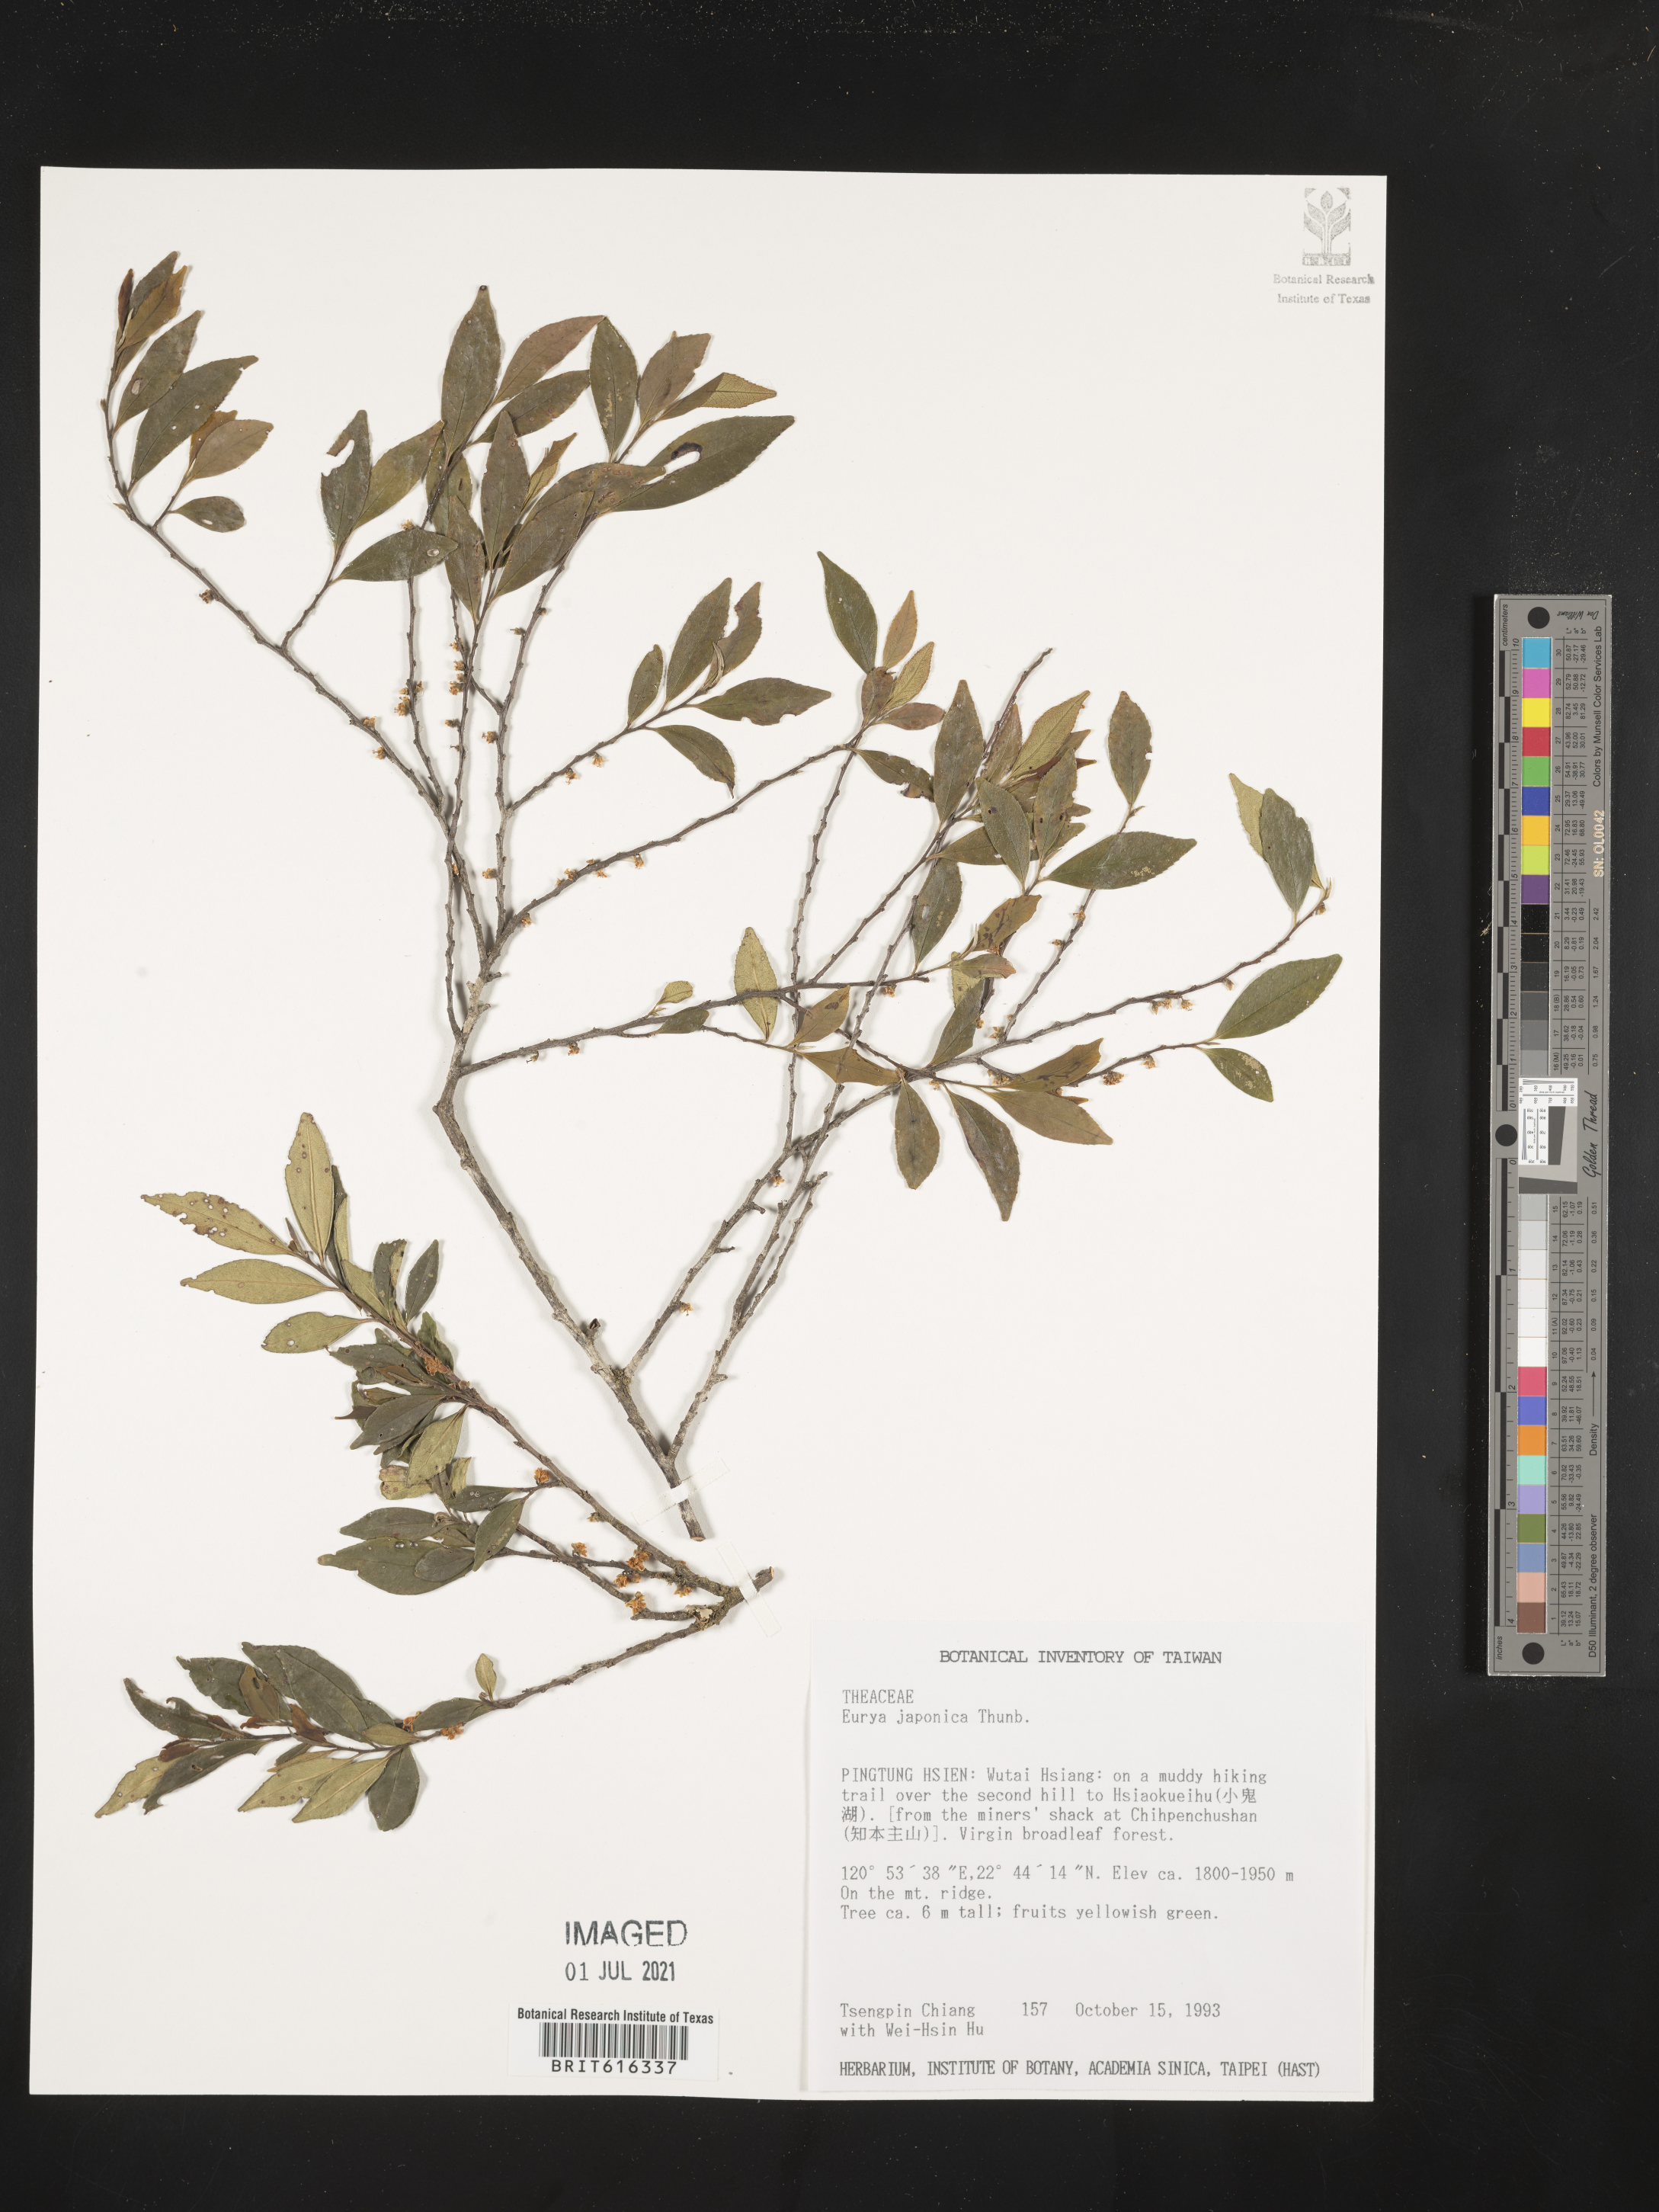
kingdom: Plantae
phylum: Tracheophyta
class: Magnoliopsida
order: Ericales
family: Pentaphylacaceae
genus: Eurya
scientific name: Eurya japonica
